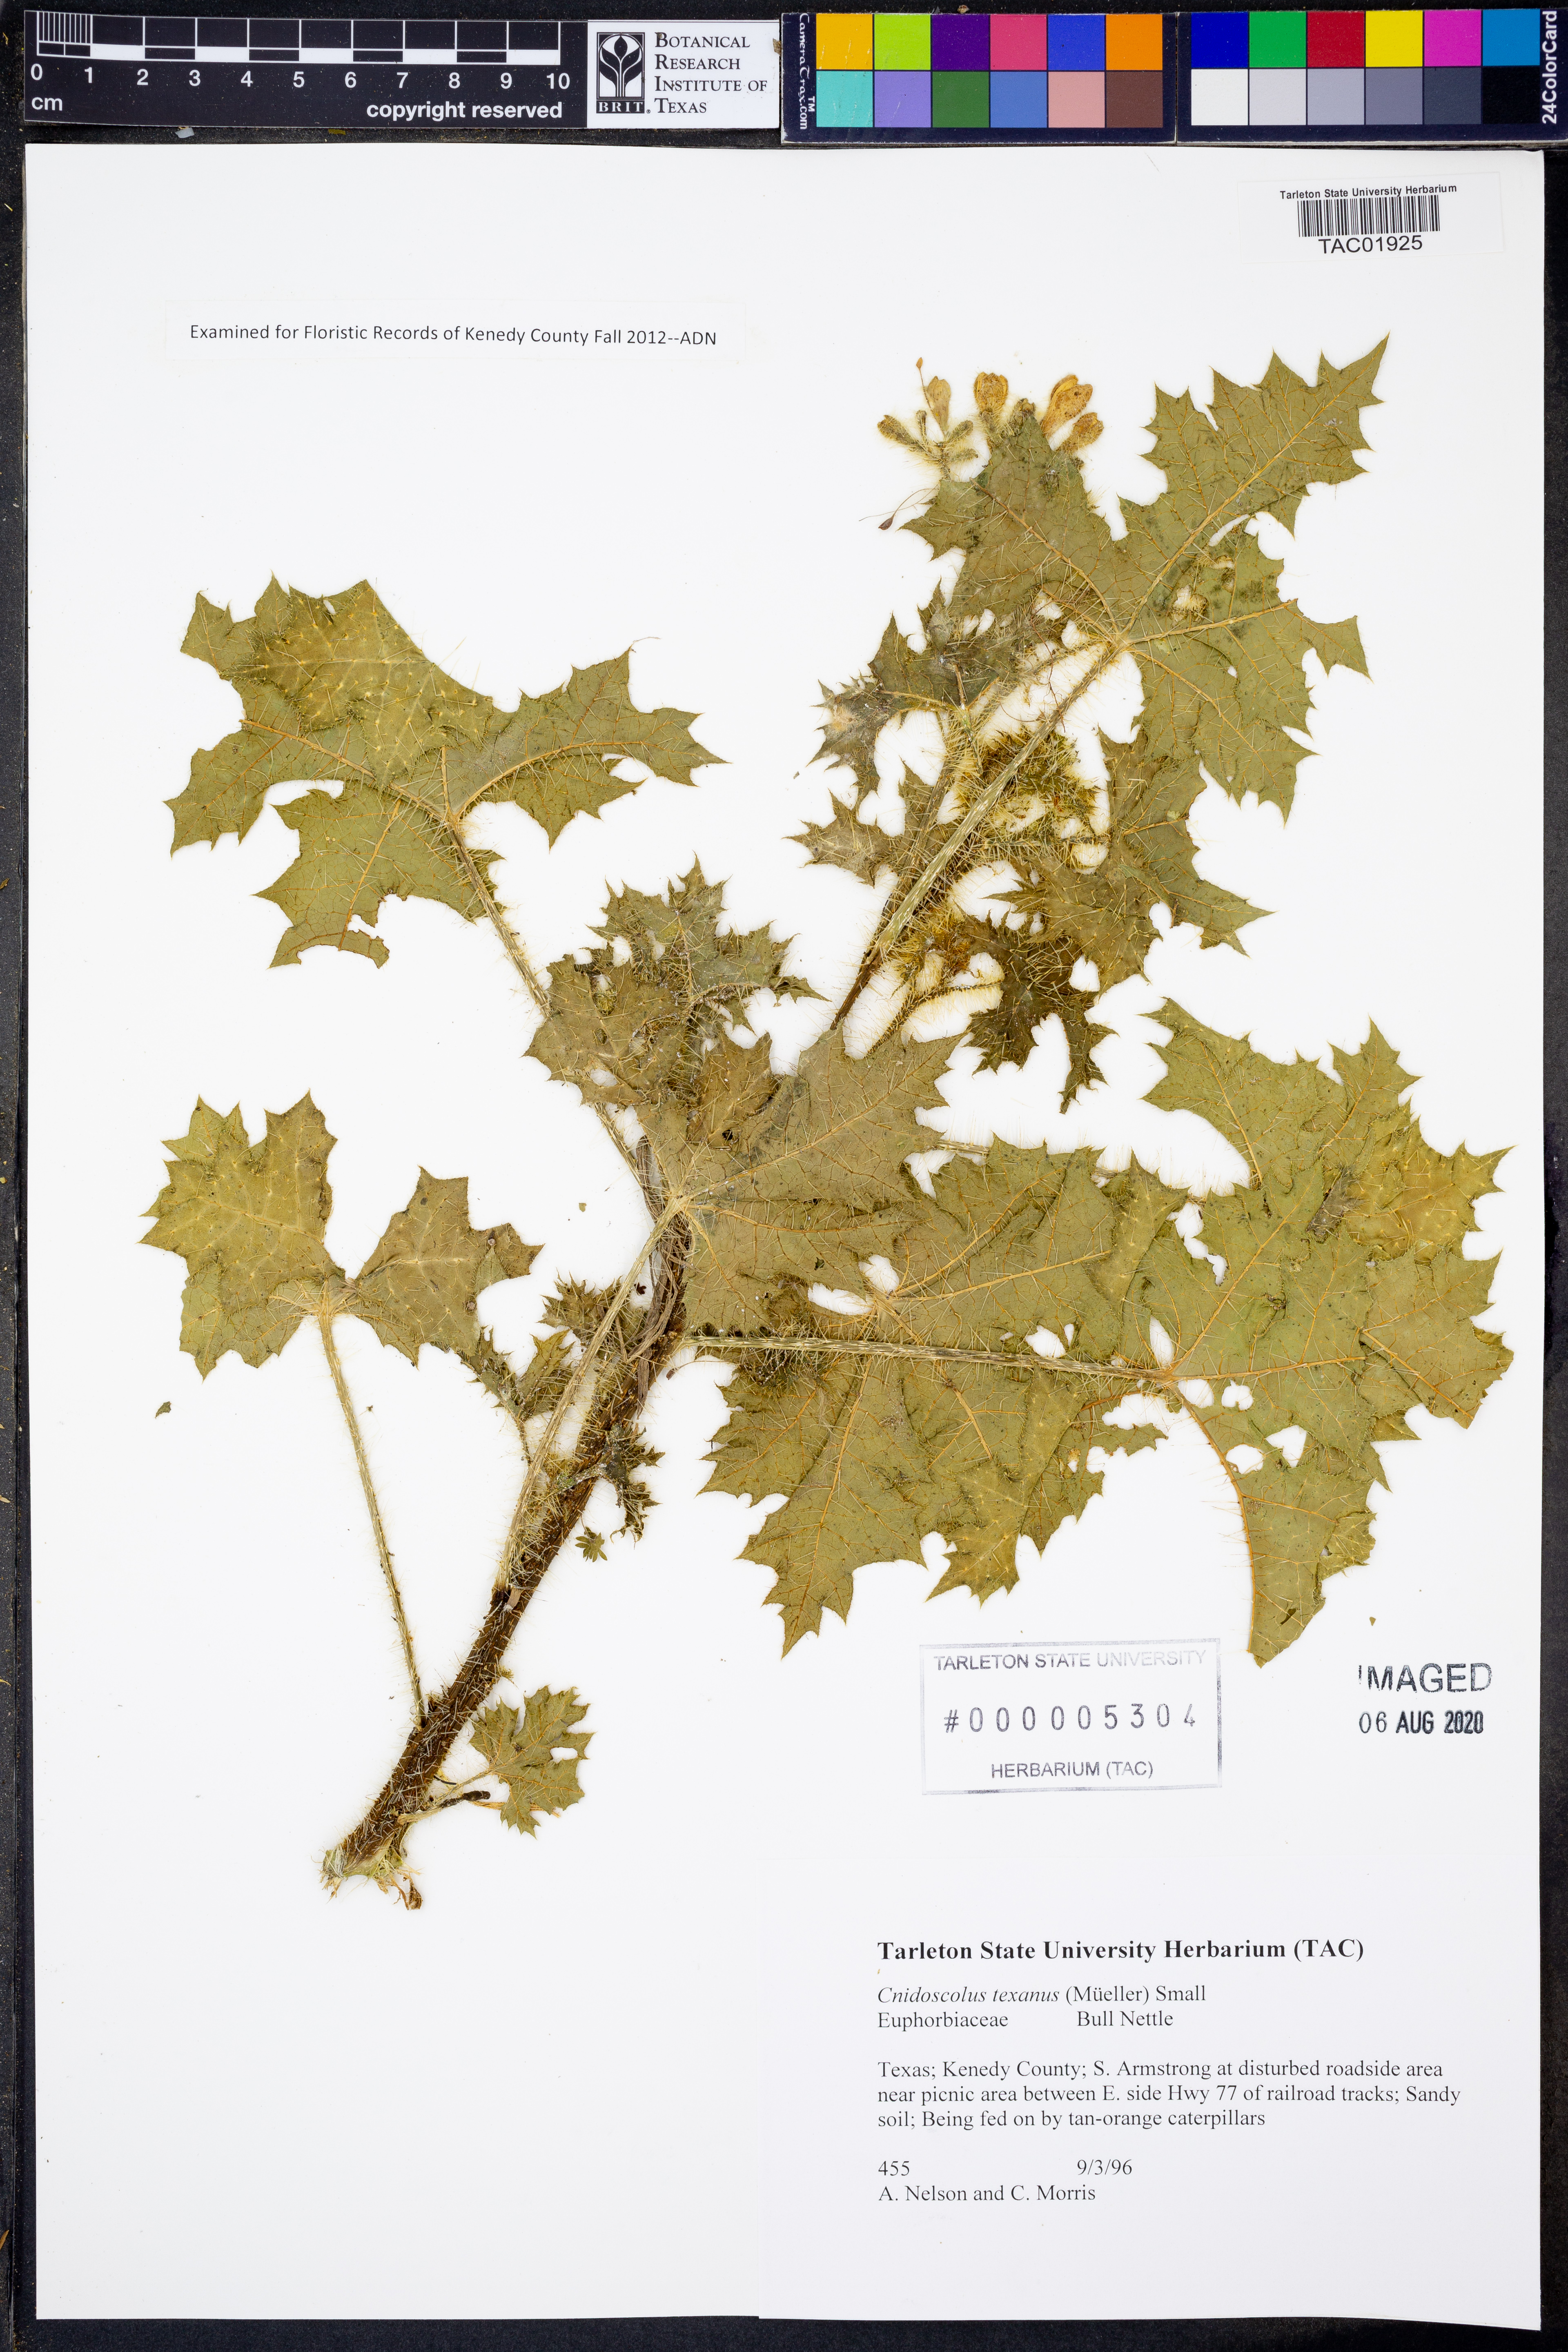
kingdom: Plantae
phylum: Tracheophyta
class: Magnoliopsida
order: Malpighiales
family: Euphorbiaceae
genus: Cnidoscolus
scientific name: Cnidoscolus texanus
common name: Texas bull-nettle
